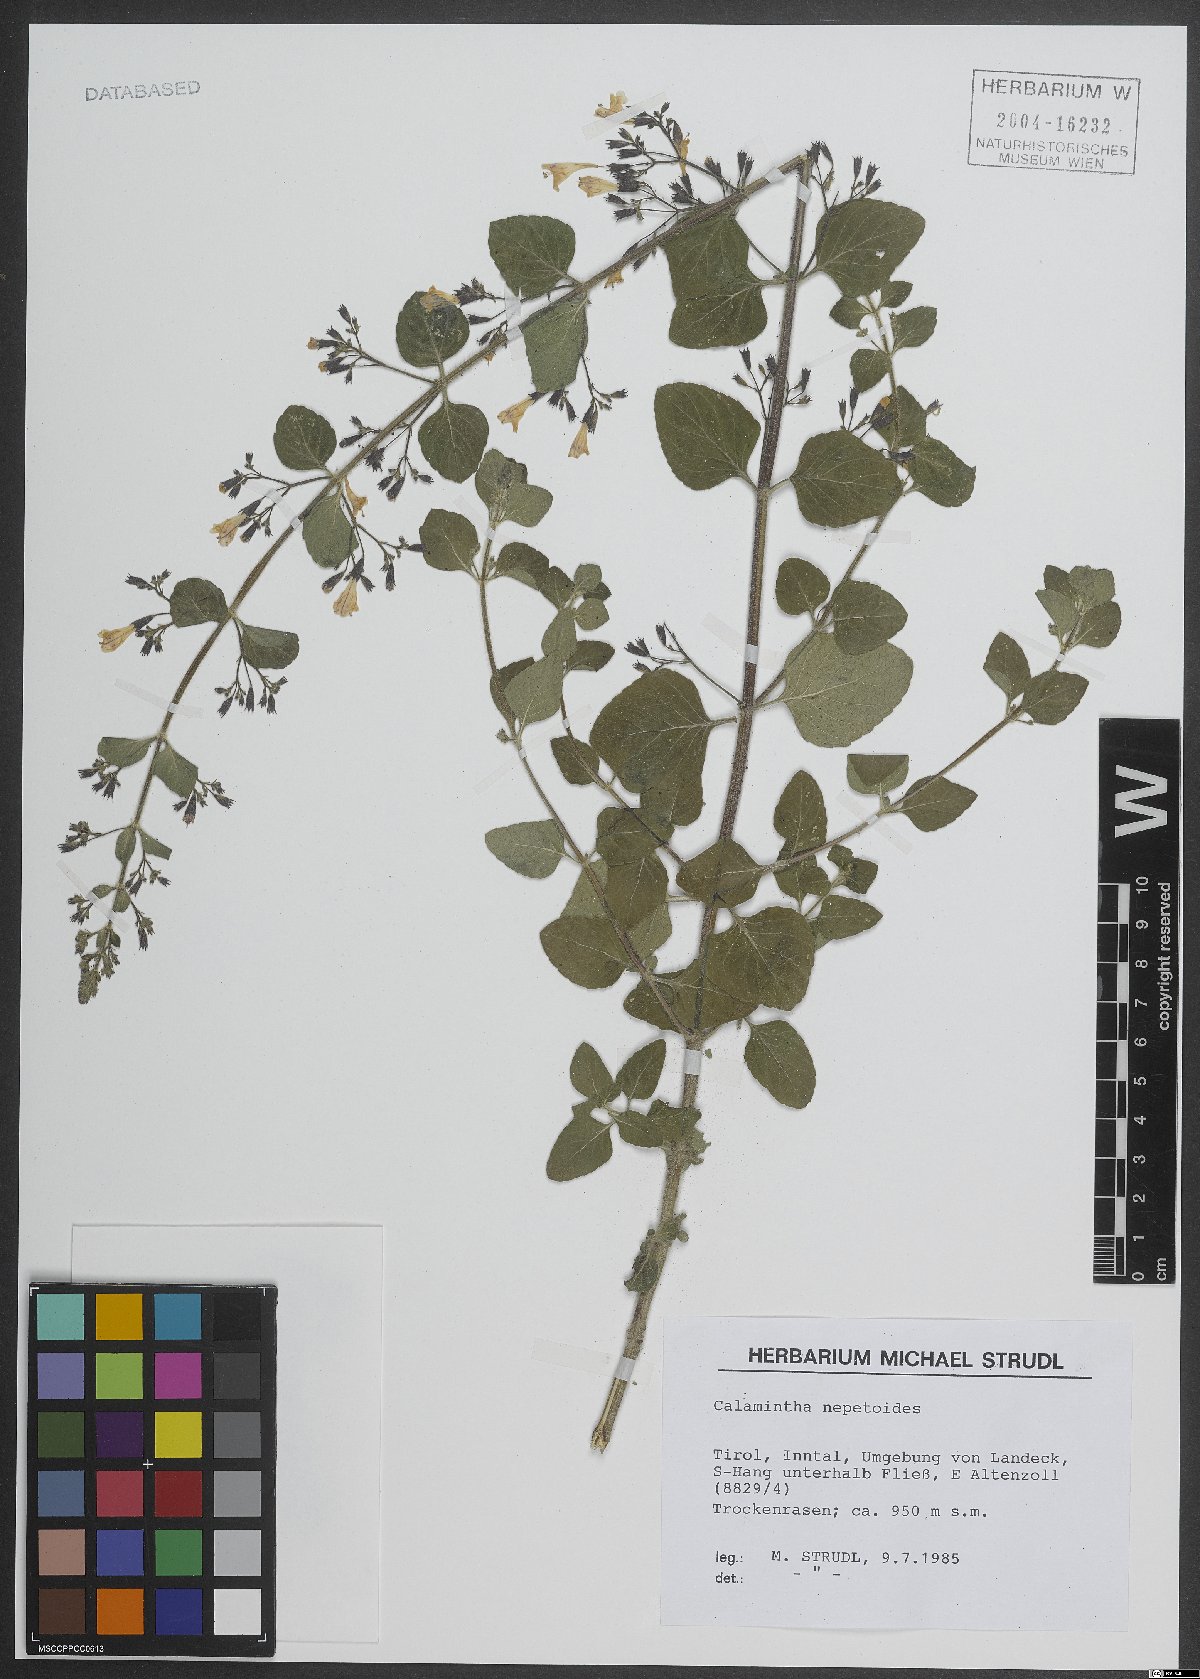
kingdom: Plantae
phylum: Tracheophyta
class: Magnoliopsida
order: Lamiales
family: Lamiaceae
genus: Clinopodium
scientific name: Clinopodium nepeta
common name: Lesser calamint
